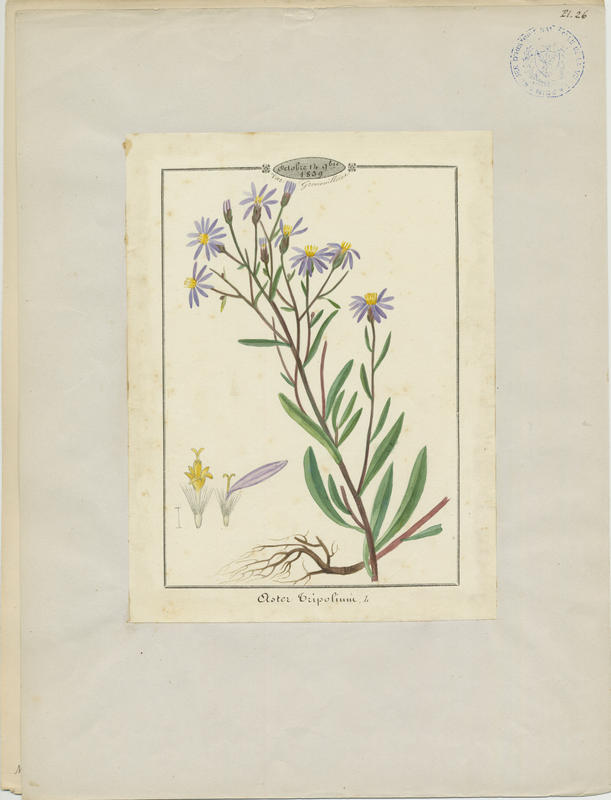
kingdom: Plantae
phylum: Tracheophyta
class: Magnoliopsida
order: Asterales
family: Asteraceae
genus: Tripolium
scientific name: Tripolium pannonicum
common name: Sea aster
